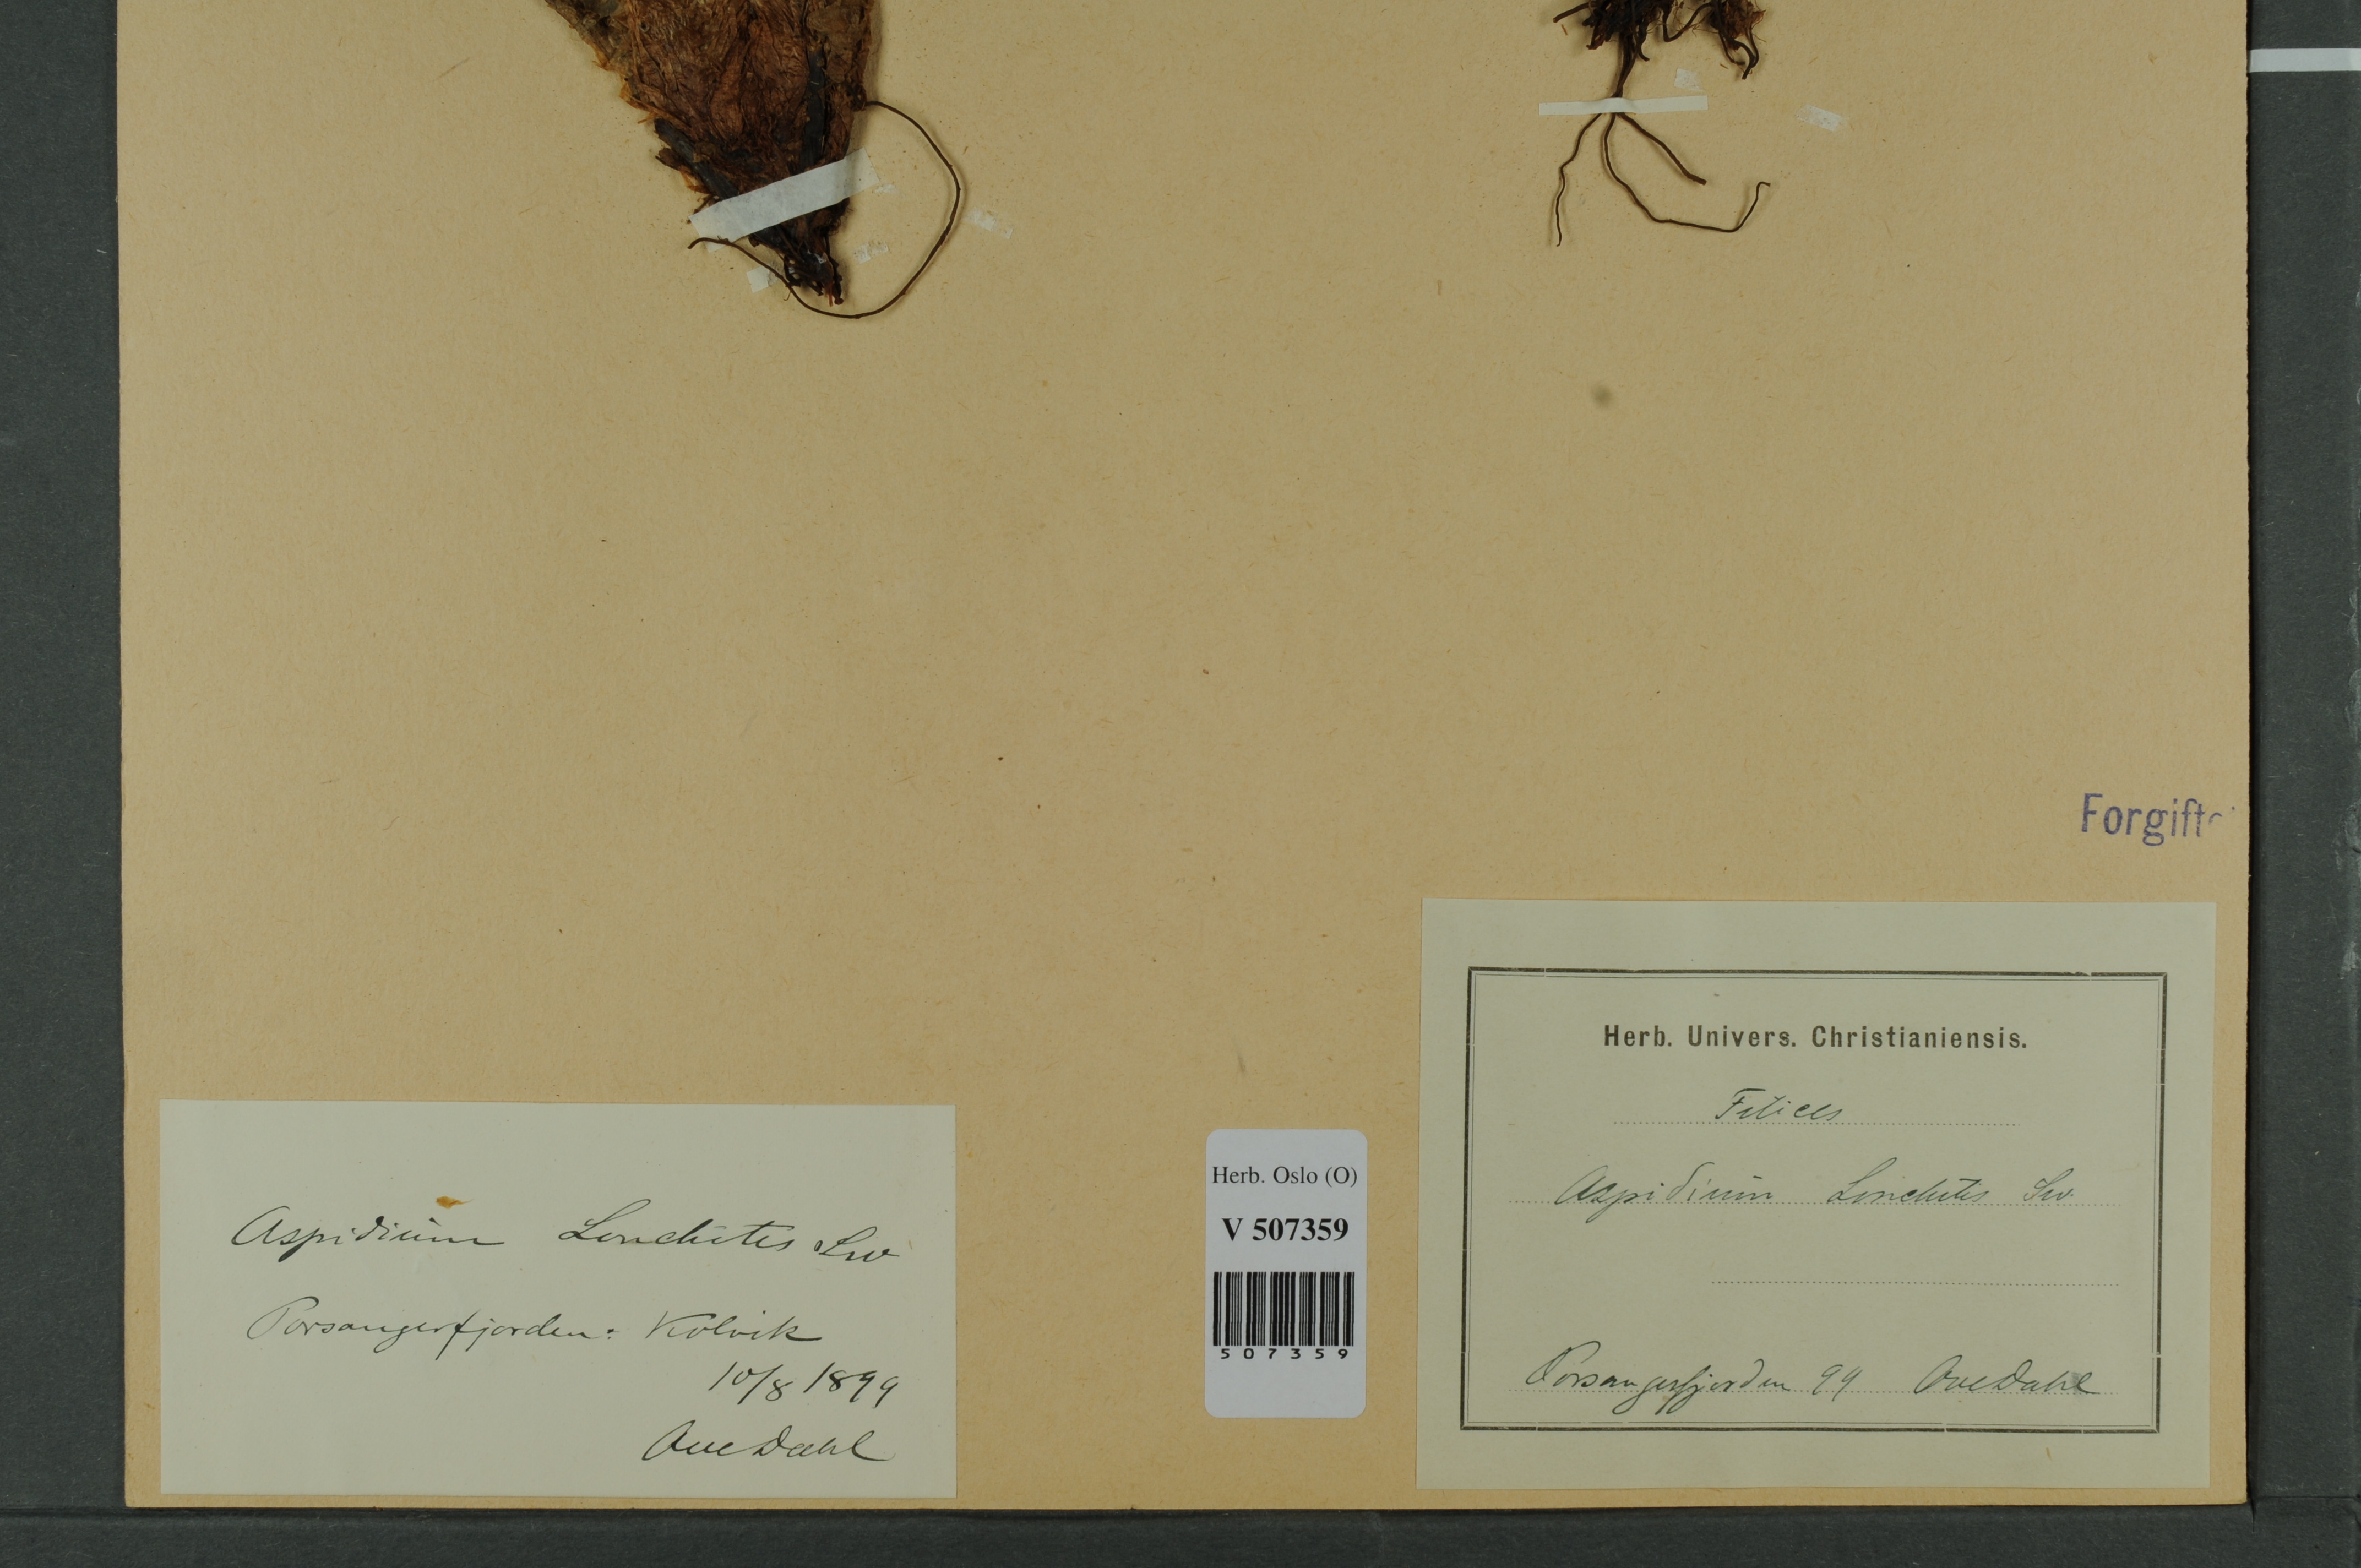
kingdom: Plantae
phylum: Tracheophyta
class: Polypodiopsida
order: Polypodiales
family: Dryopteridaceae
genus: Polystichum
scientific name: Polystichum lonchitis
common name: Holly fern
